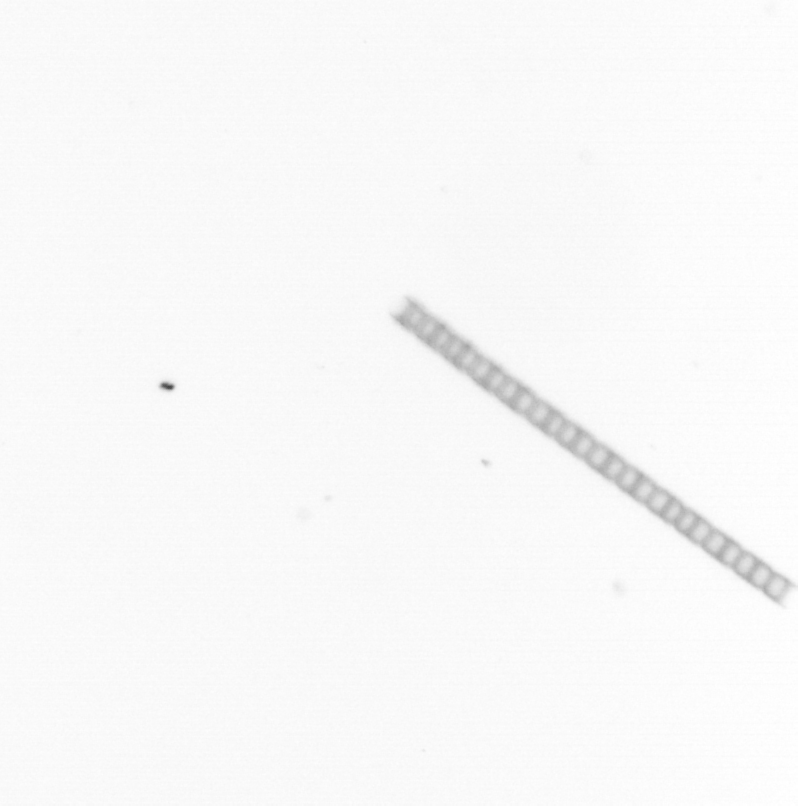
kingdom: Chromista
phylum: Ochrophyta
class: Bacillariophyceae
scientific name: Bacillariophyceae
